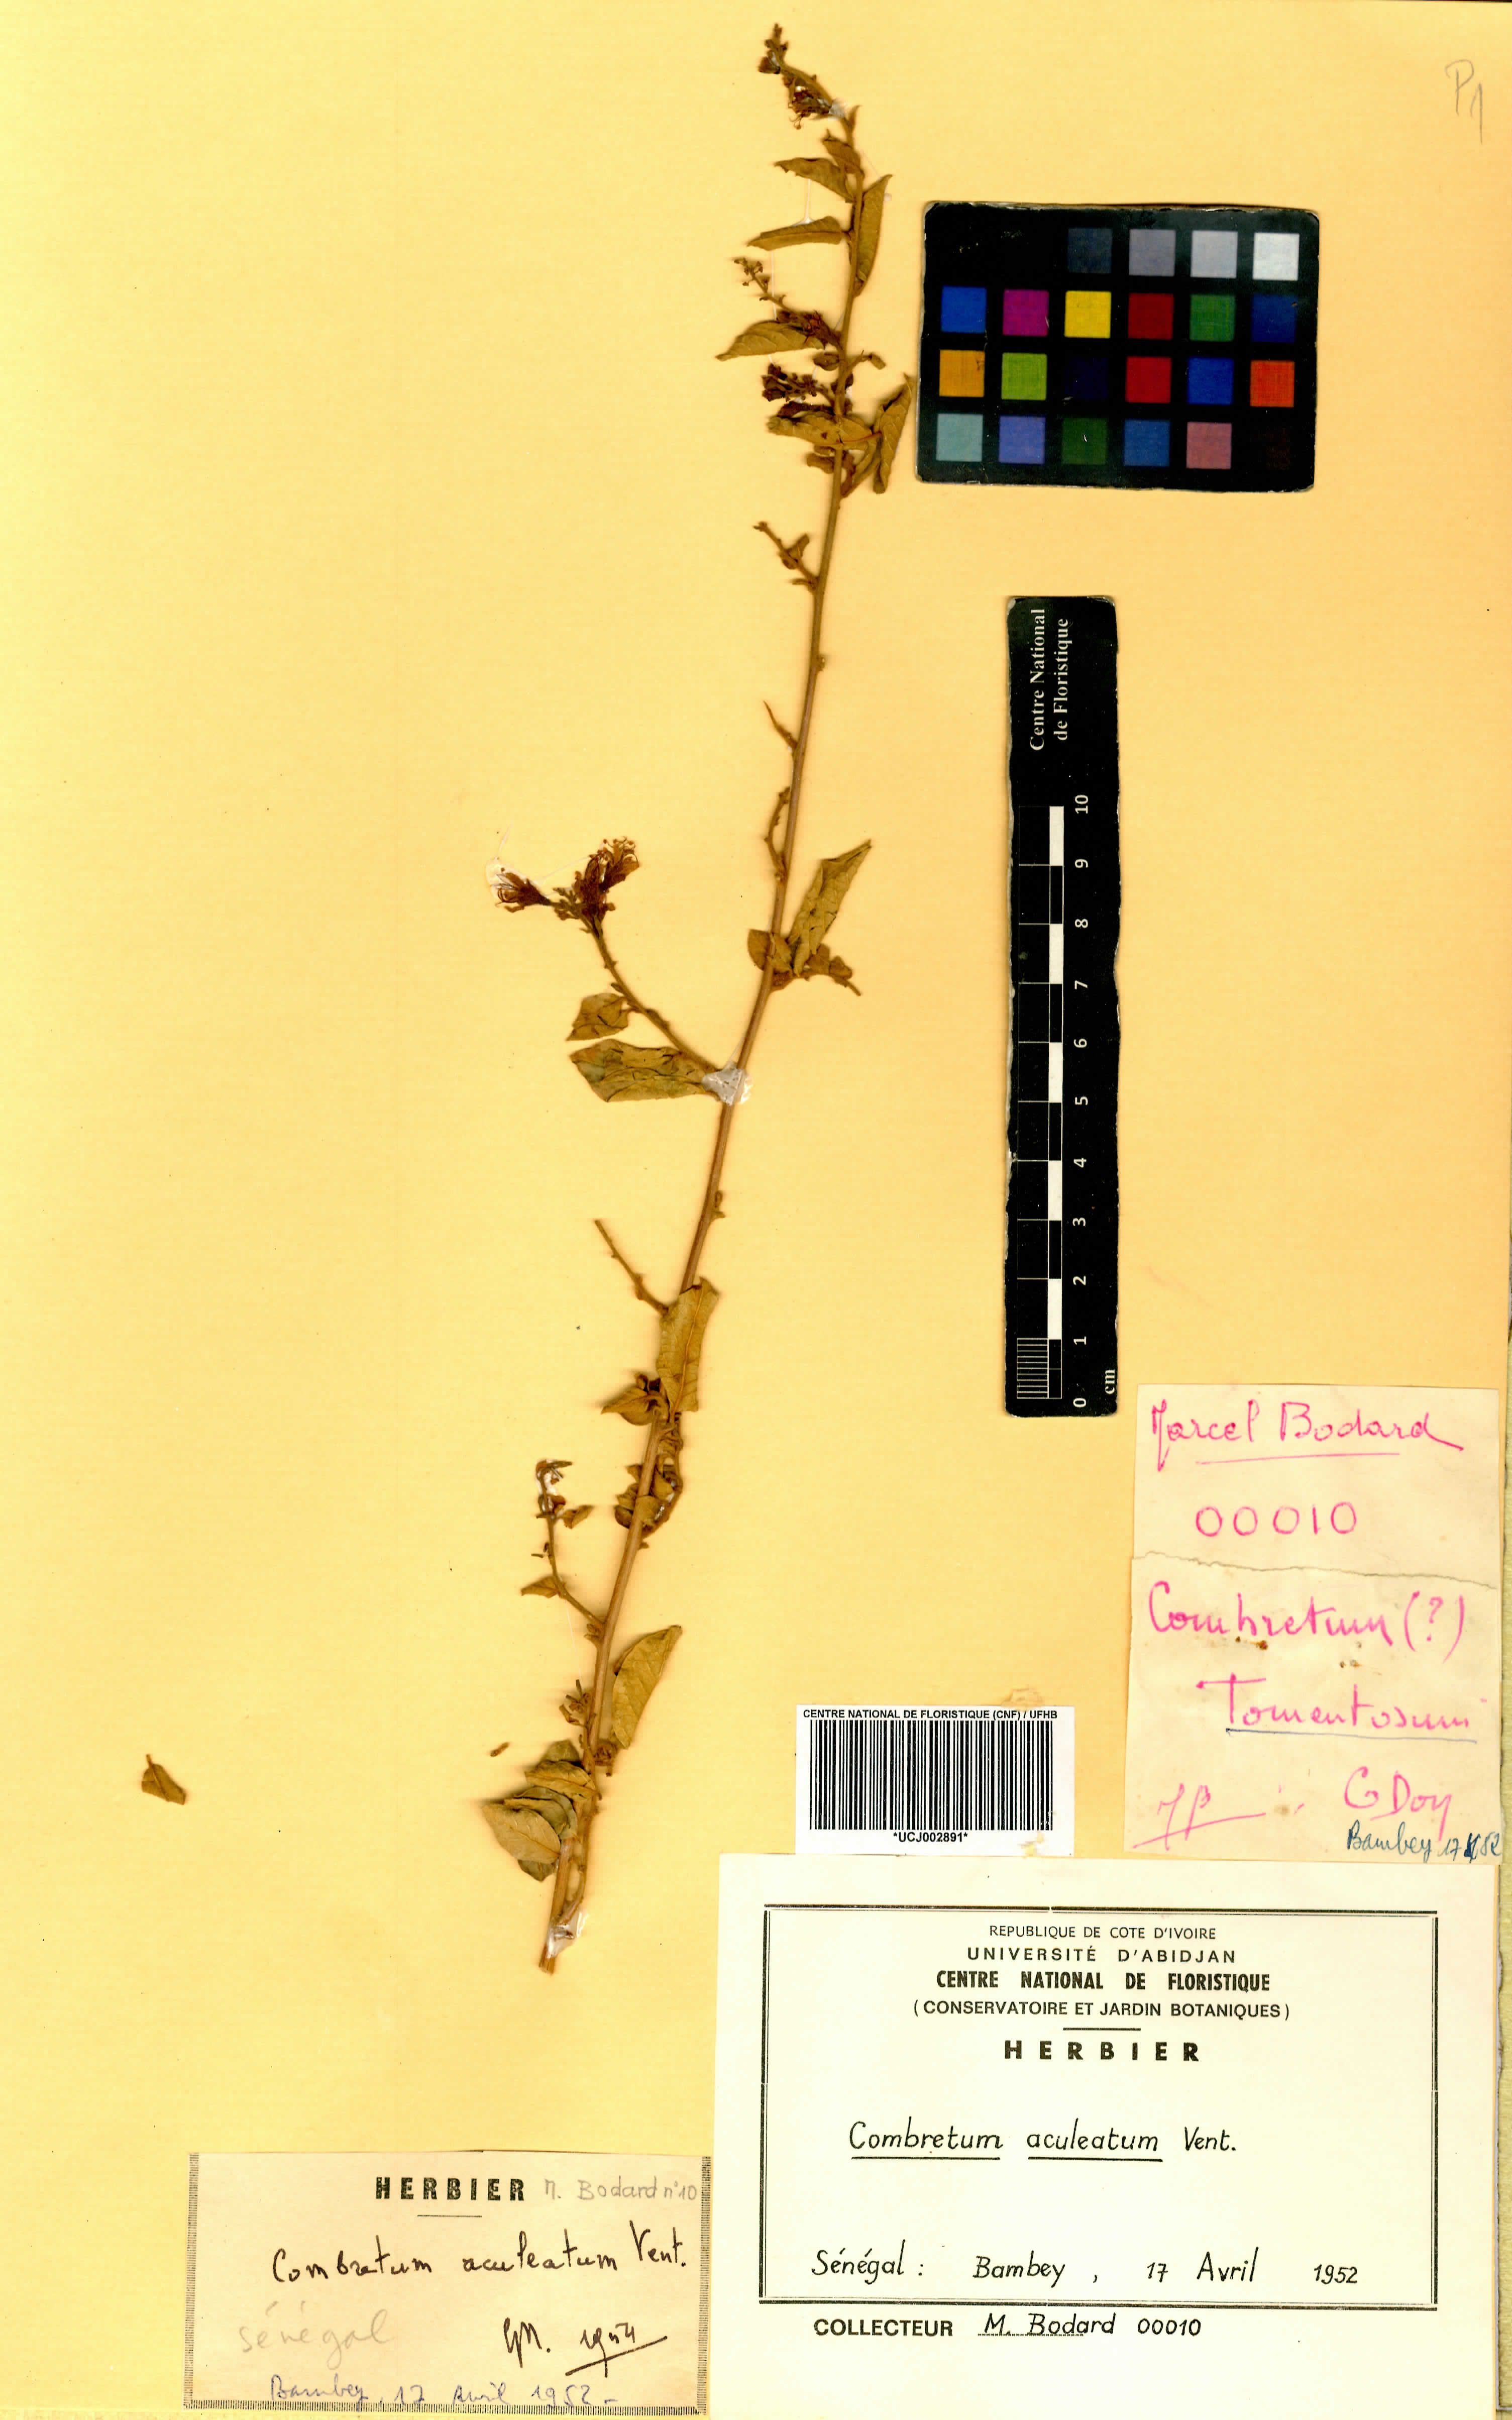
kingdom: Plantae
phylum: Tracheophyta
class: Magnoliopsida
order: Myrtales
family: Combretaceae
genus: Combretum
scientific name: Combretum aculeatum
